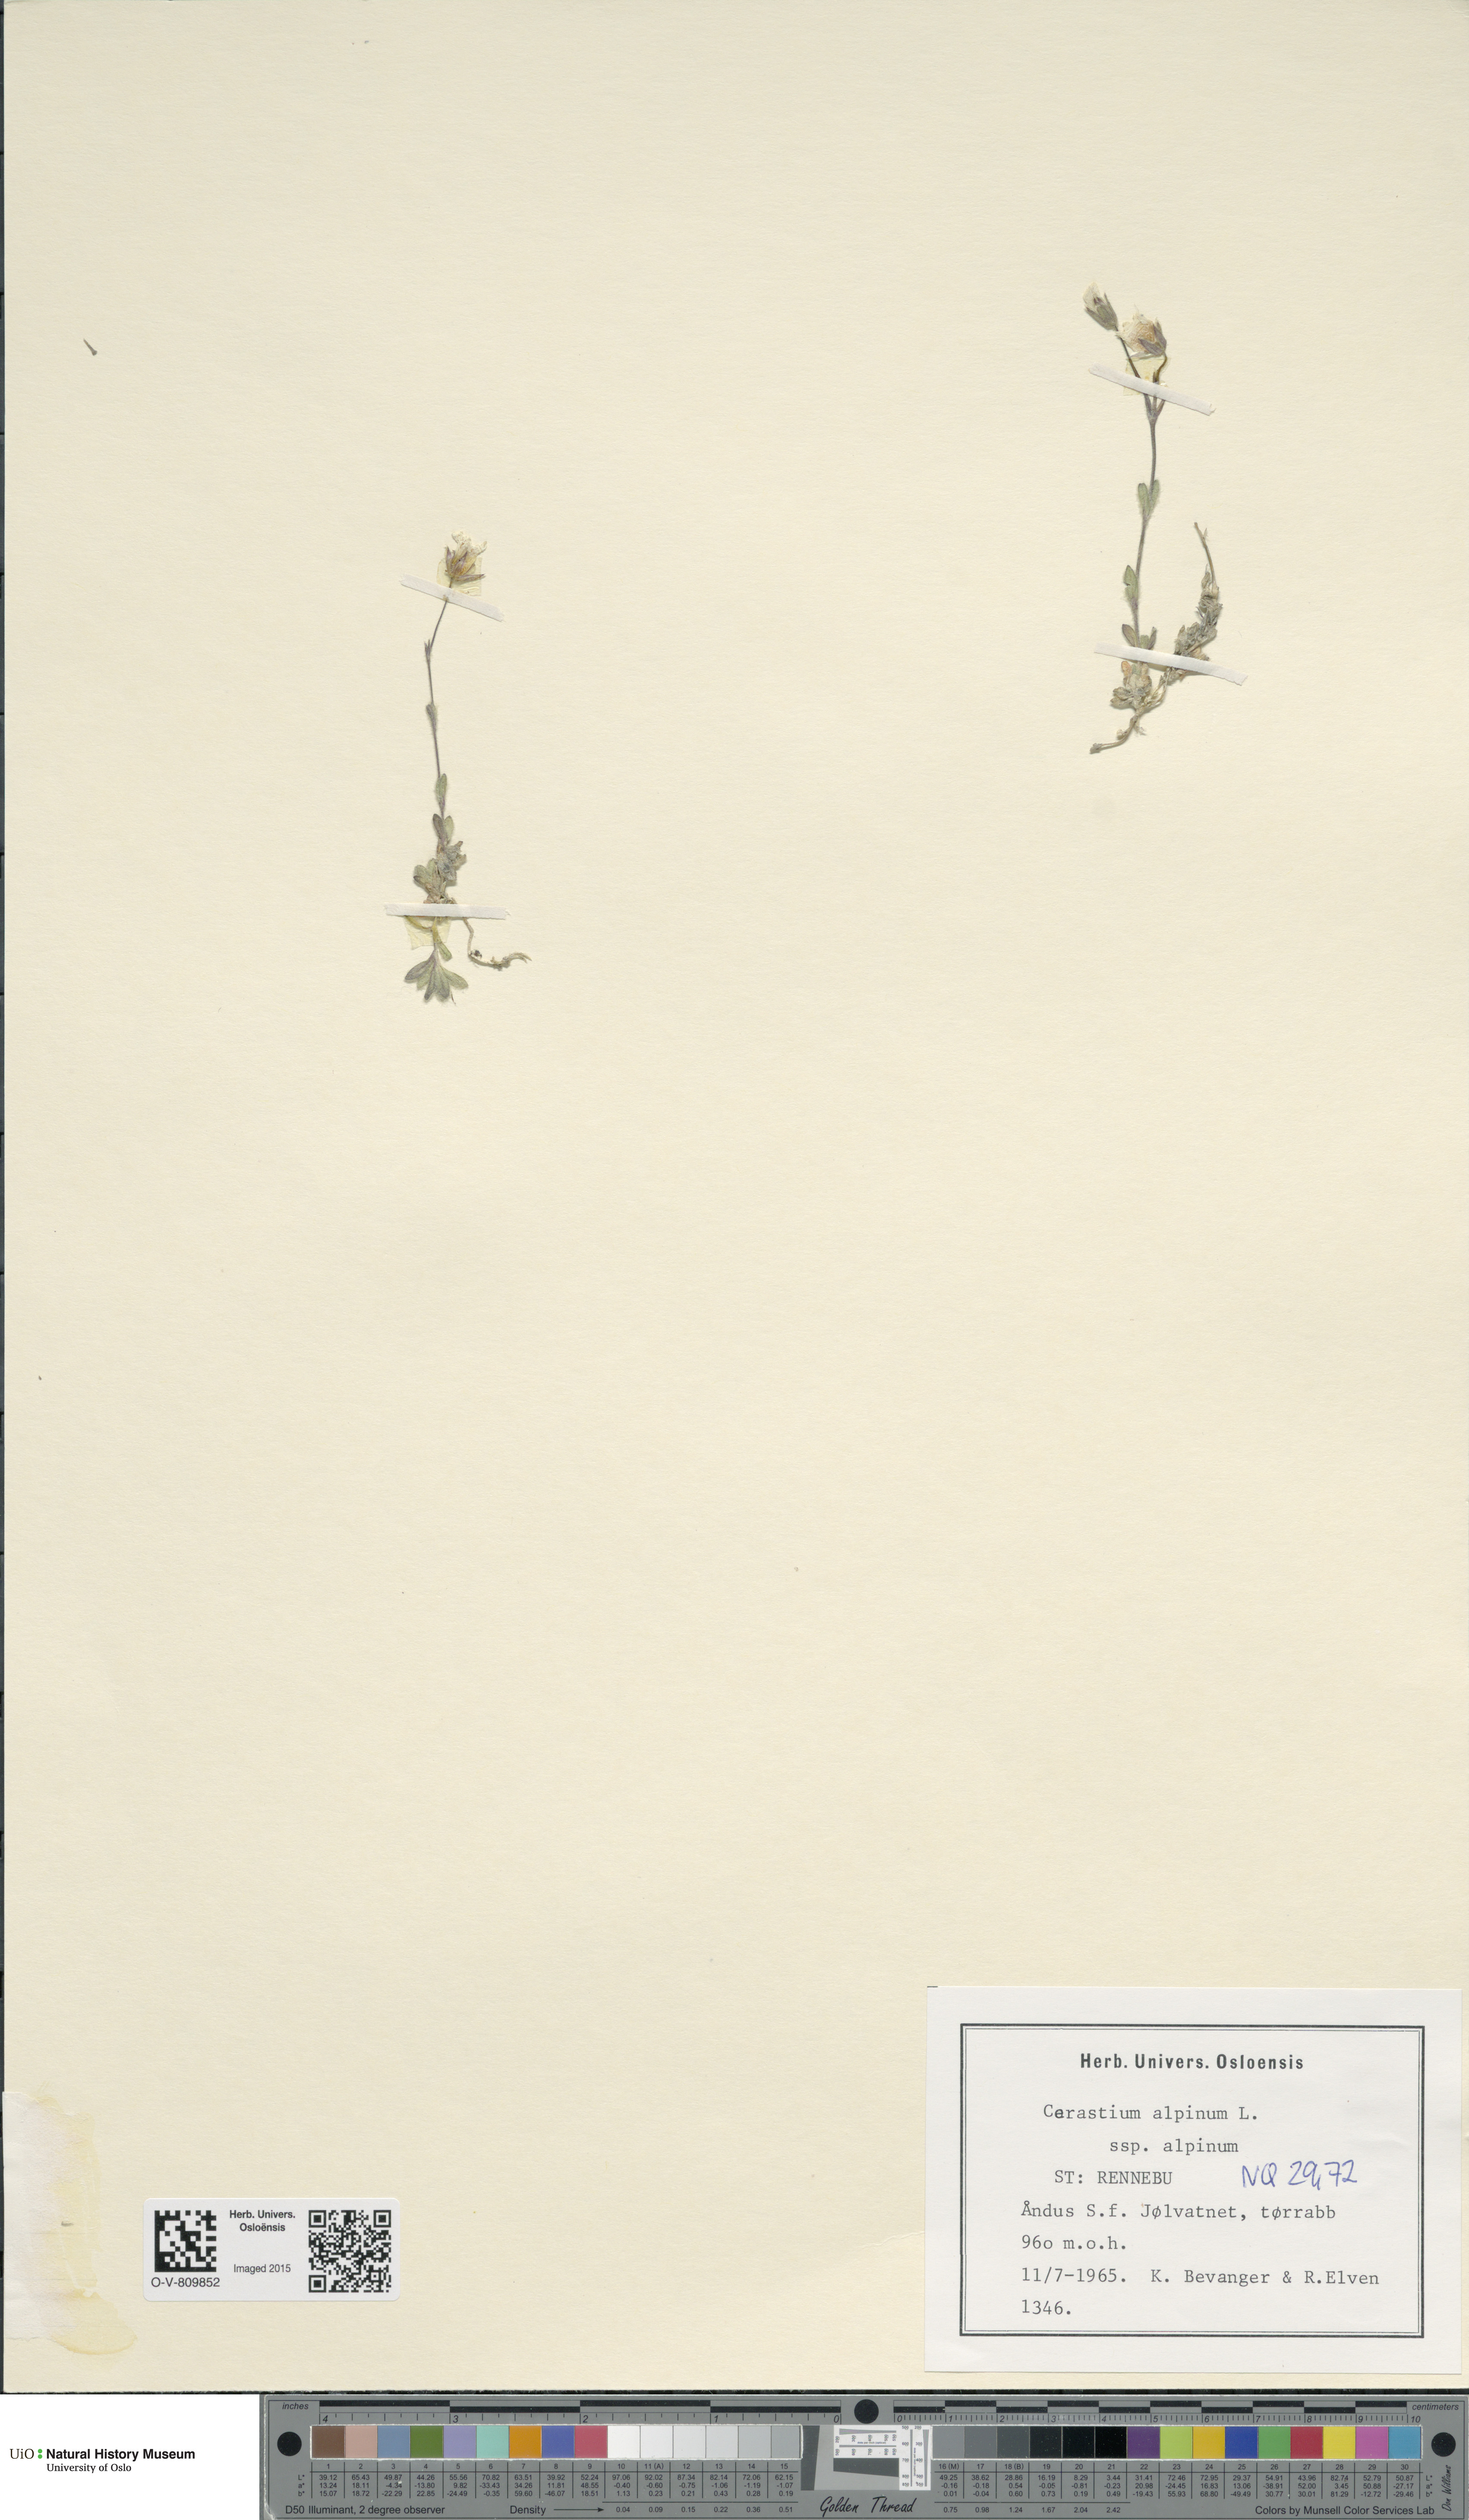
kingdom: Plantae
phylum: Tracheophyta
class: Magnoliopsida
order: Caryophyllales
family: Caryophyllaceae
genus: Cerastium
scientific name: Cerastium alpinum
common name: Alpine mouse-ear
